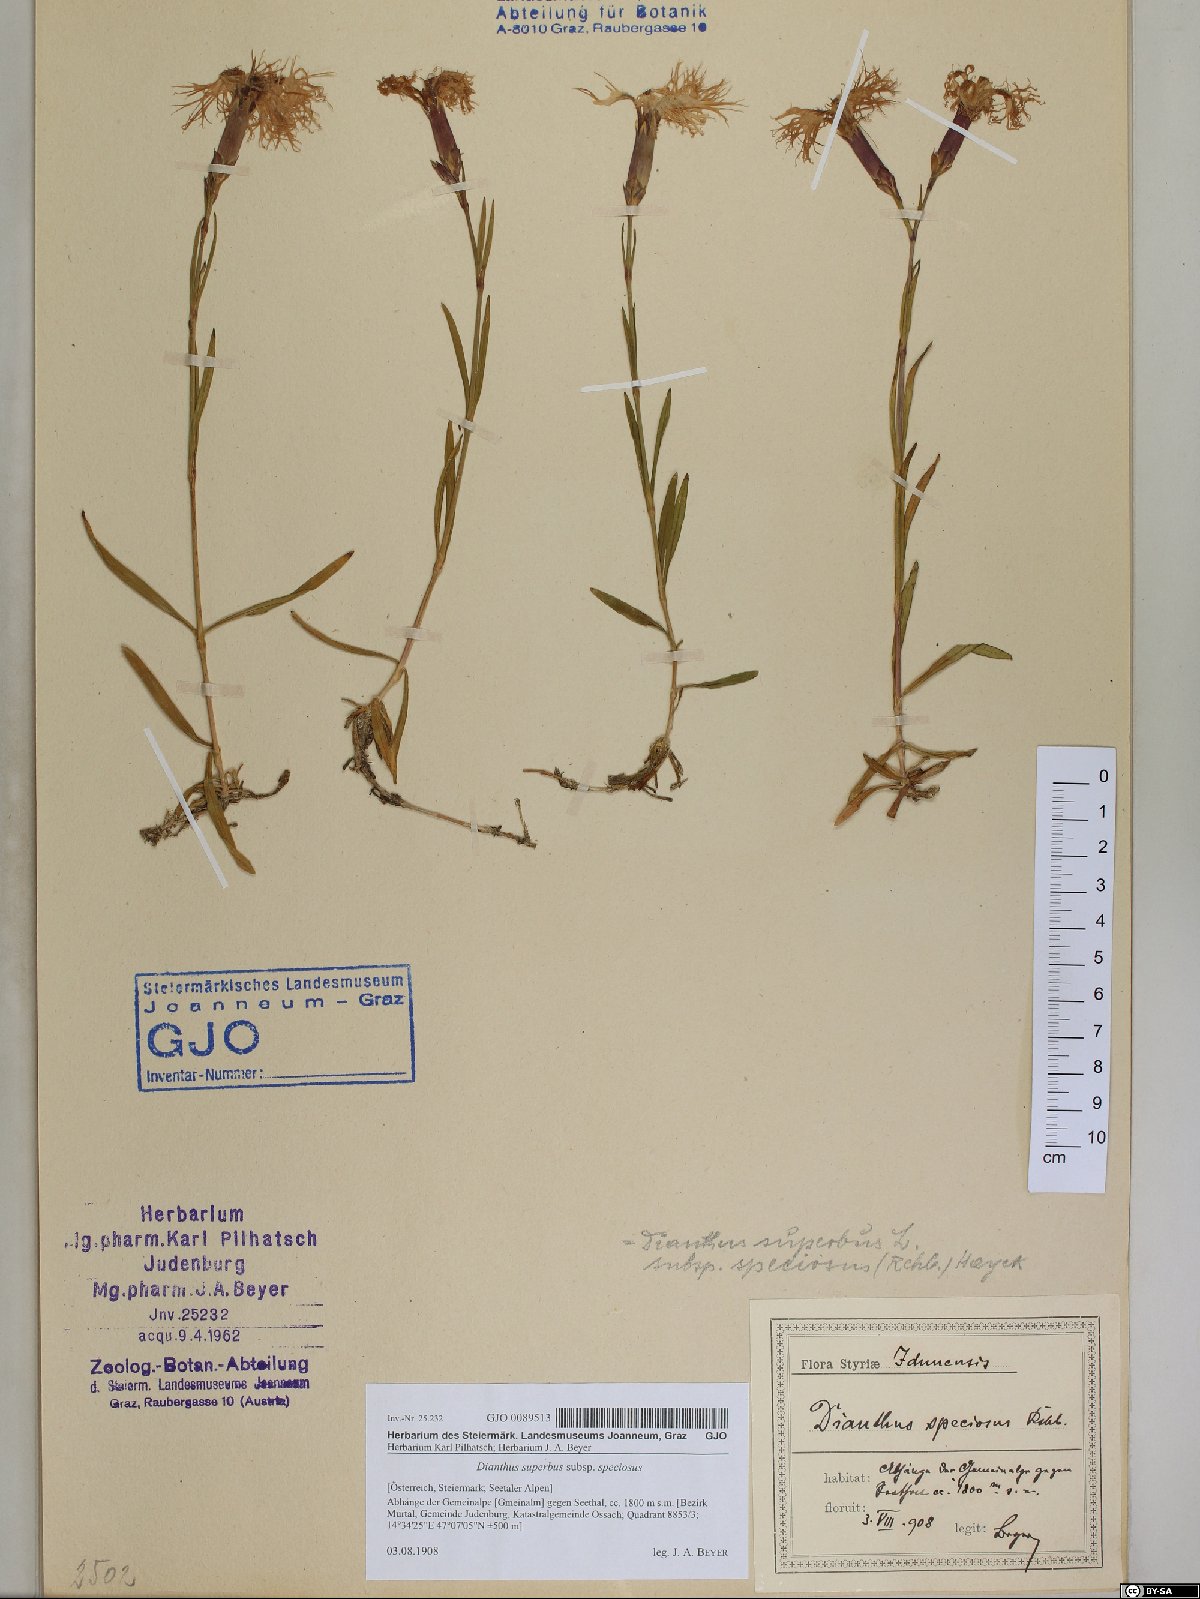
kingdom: Plantae
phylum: Tracheophyta
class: Magnoliopsida
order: Caryophyllales
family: Caryophyllaceae
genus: Dianthus
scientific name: Dianthus superbus
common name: Fringed pink
